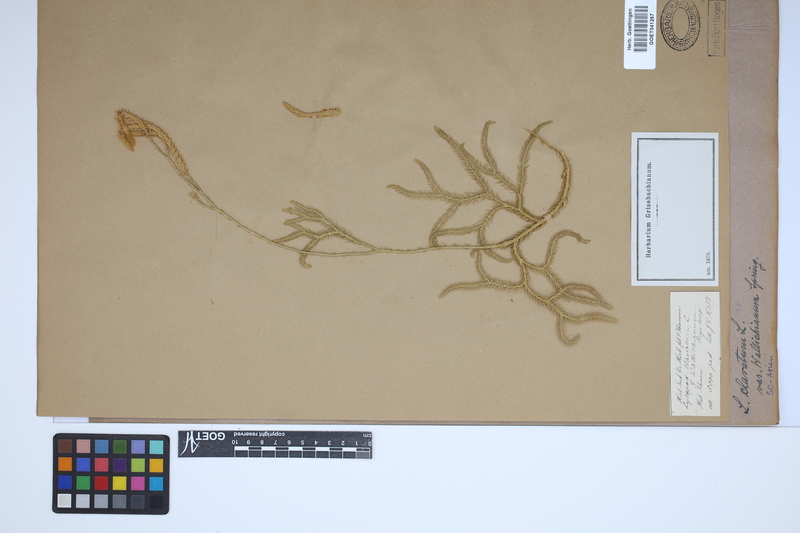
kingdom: Plantae
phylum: Tracheophyta
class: Lycopodiopsida
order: Lycopodiales
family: Lycopodiaceae
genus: Lycopodium
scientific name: Lycopodium clavatum
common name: Stag's-horn clubmoss
